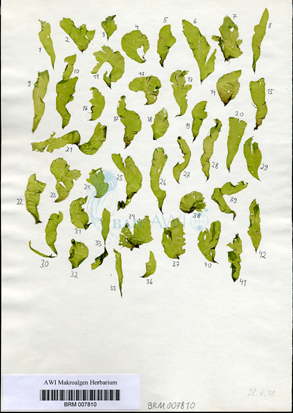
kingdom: Plantae
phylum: Chlorophyta
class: Ulvophyceae
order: Ulvales
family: Ulvaceae
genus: Ulva
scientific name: Ulva tenera
